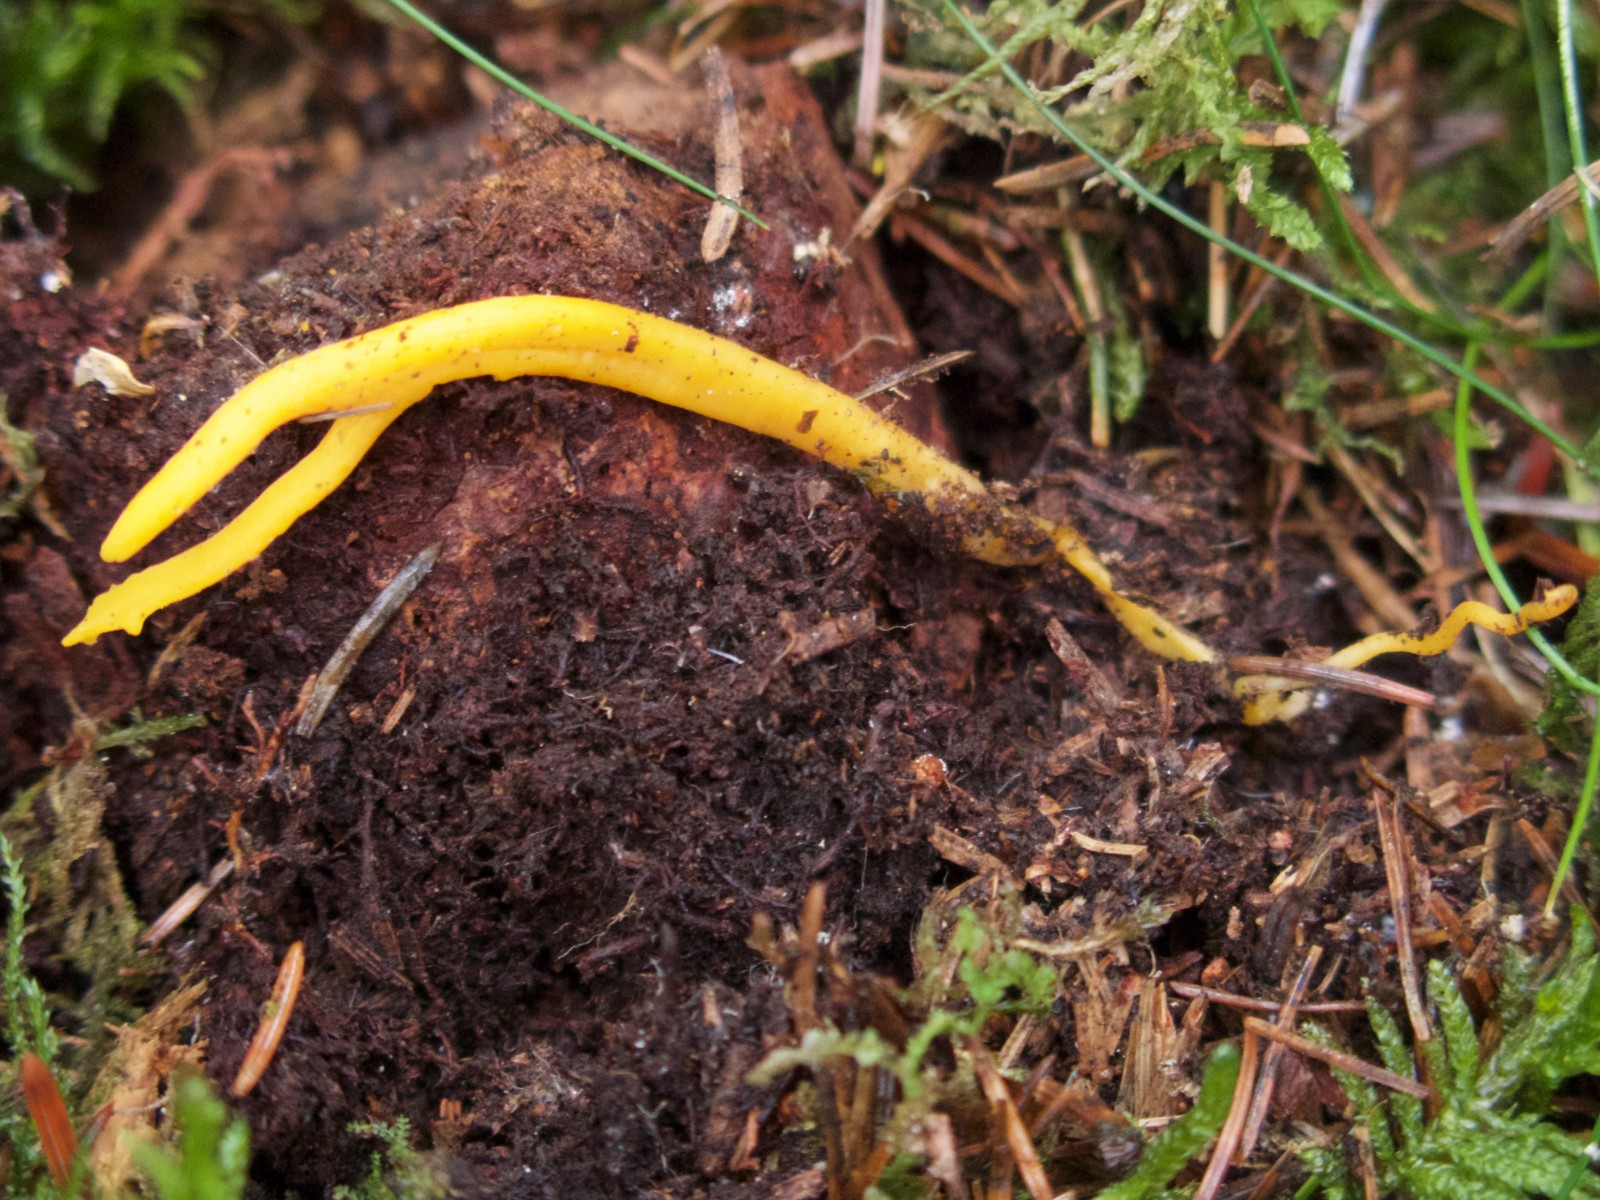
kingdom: Fungi
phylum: Basidiomycota
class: Dacrymycetes
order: Dacrymycetales
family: Dacrymycetaceae
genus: Calocera
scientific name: Calocera viscosa
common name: almindelig guldgaffel
